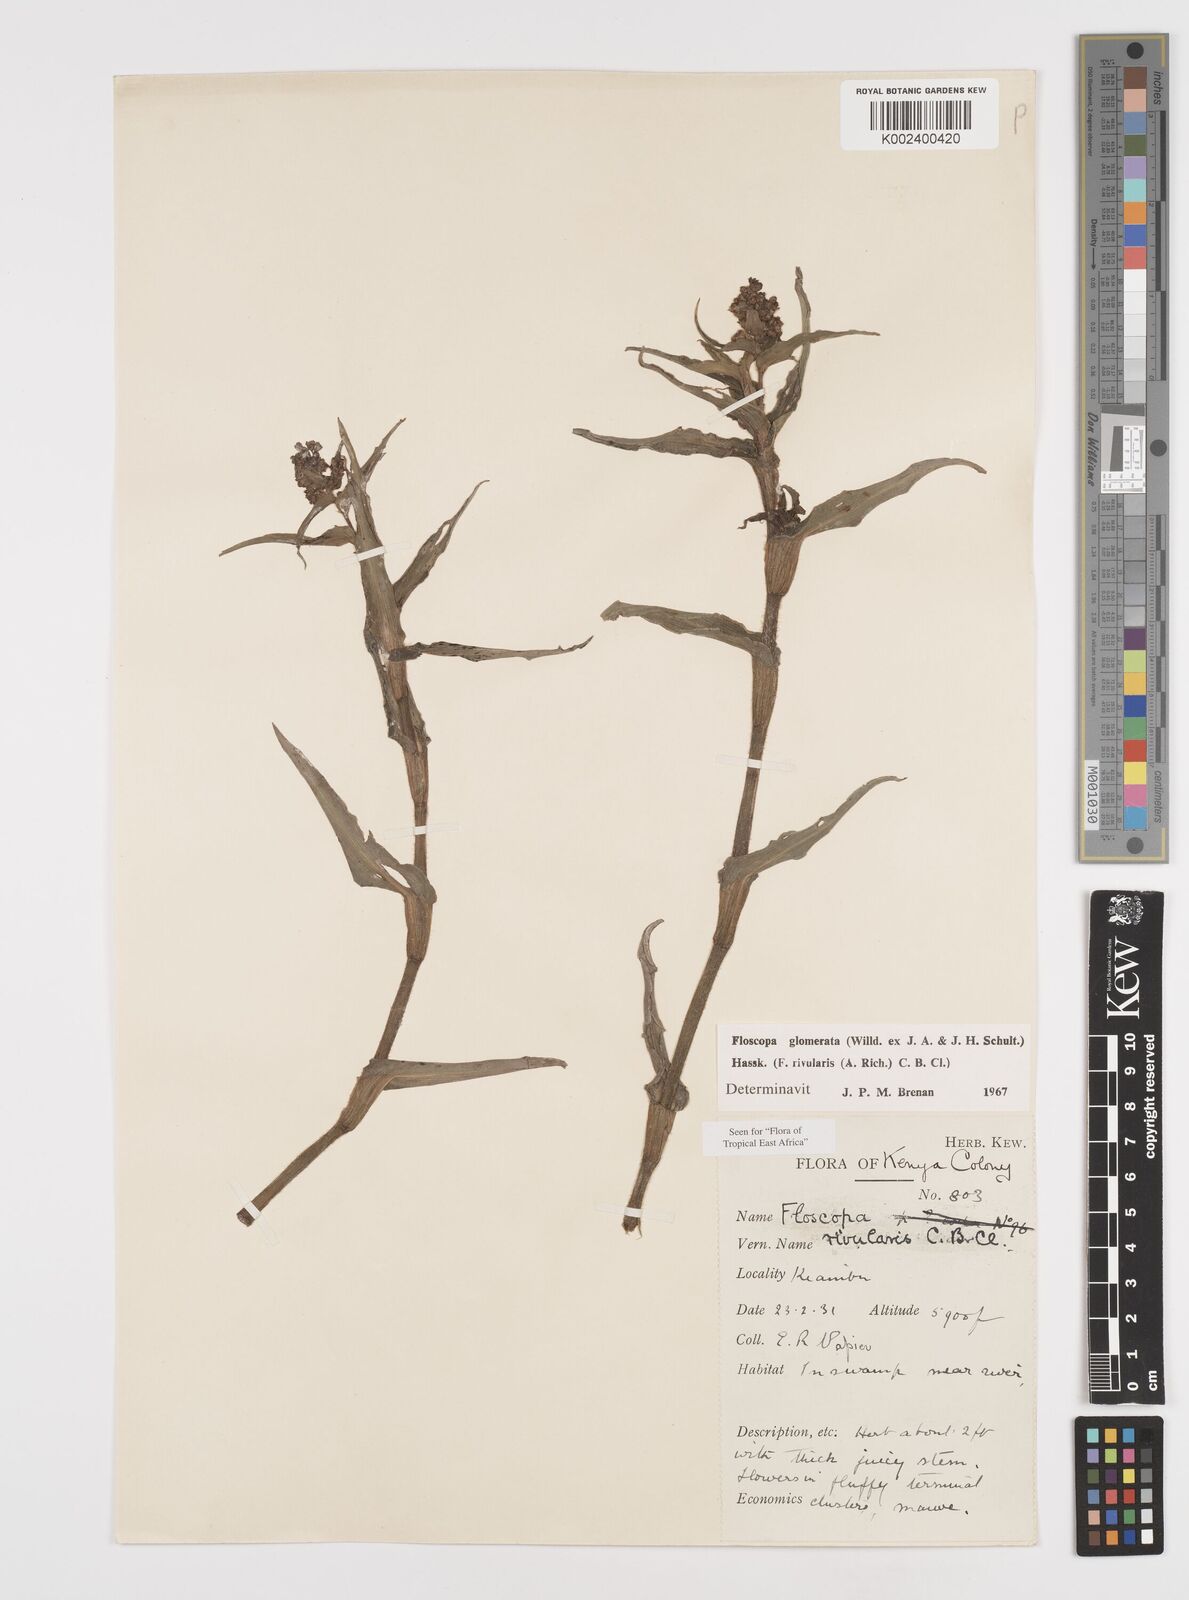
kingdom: Plantae
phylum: Tracheophyta
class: Liliopsida
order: Commelinales
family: Commelinaceae
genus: Floscopa
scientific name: Floscopa glomerata
